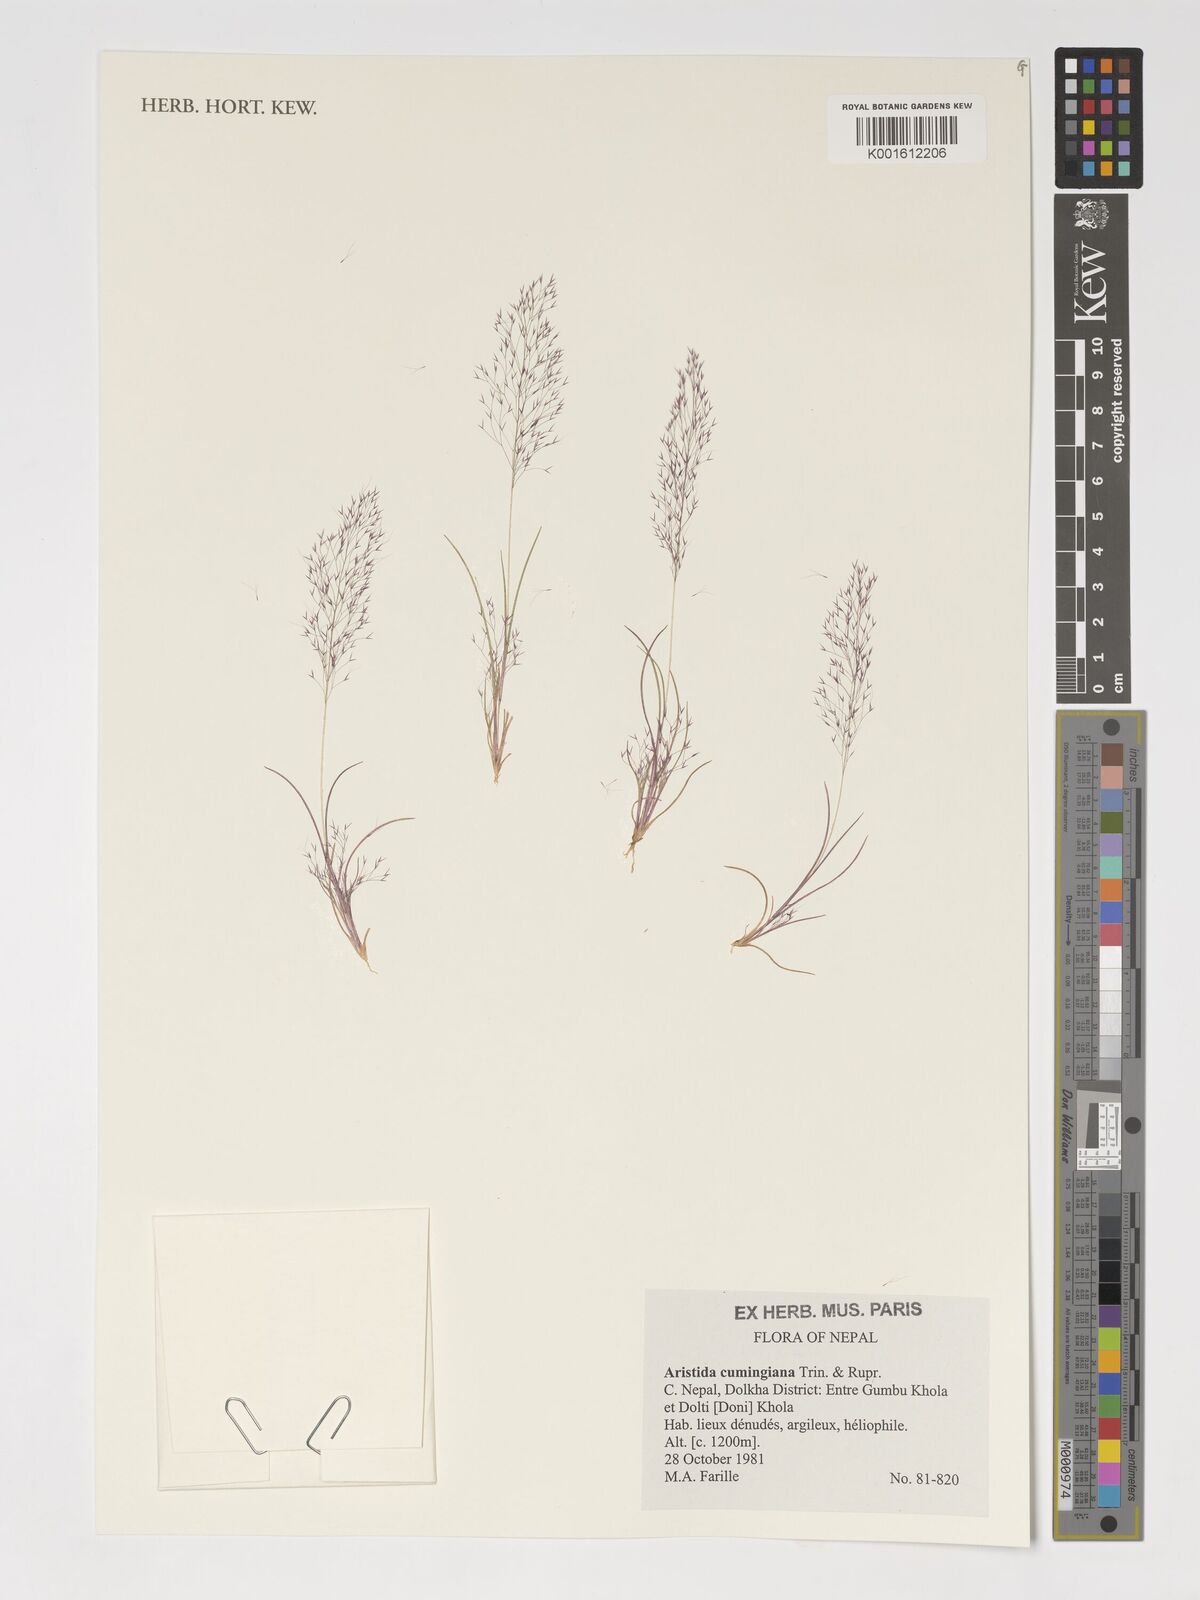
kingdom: Plantae
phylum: Tracheophyta
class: Liliopsida
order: Poales
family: Poaceae
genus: Aristida
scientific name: Aristida cumingiana
